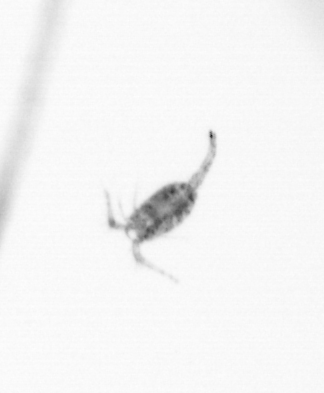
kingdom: Animalia
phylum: Arthropoda
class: Copepoda
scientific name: Copepoda
